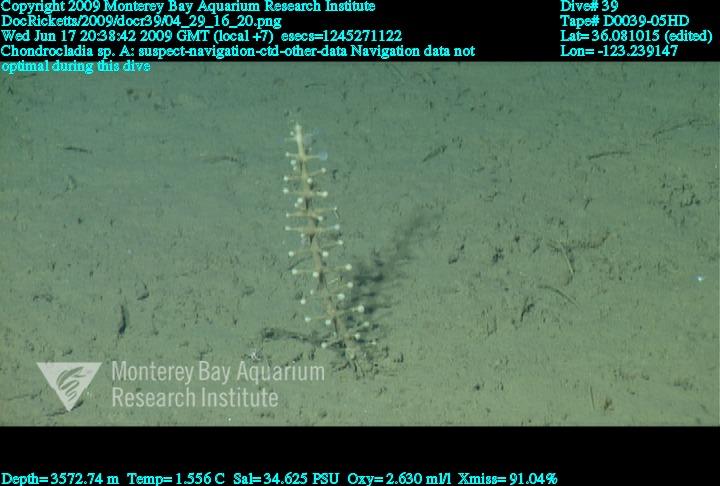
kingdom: Animalia
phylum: Porifera
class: Demospongiae
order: Poecilosclerida
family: Cladorhizidae
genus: Chondrocladia
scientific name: Chondrocladia
